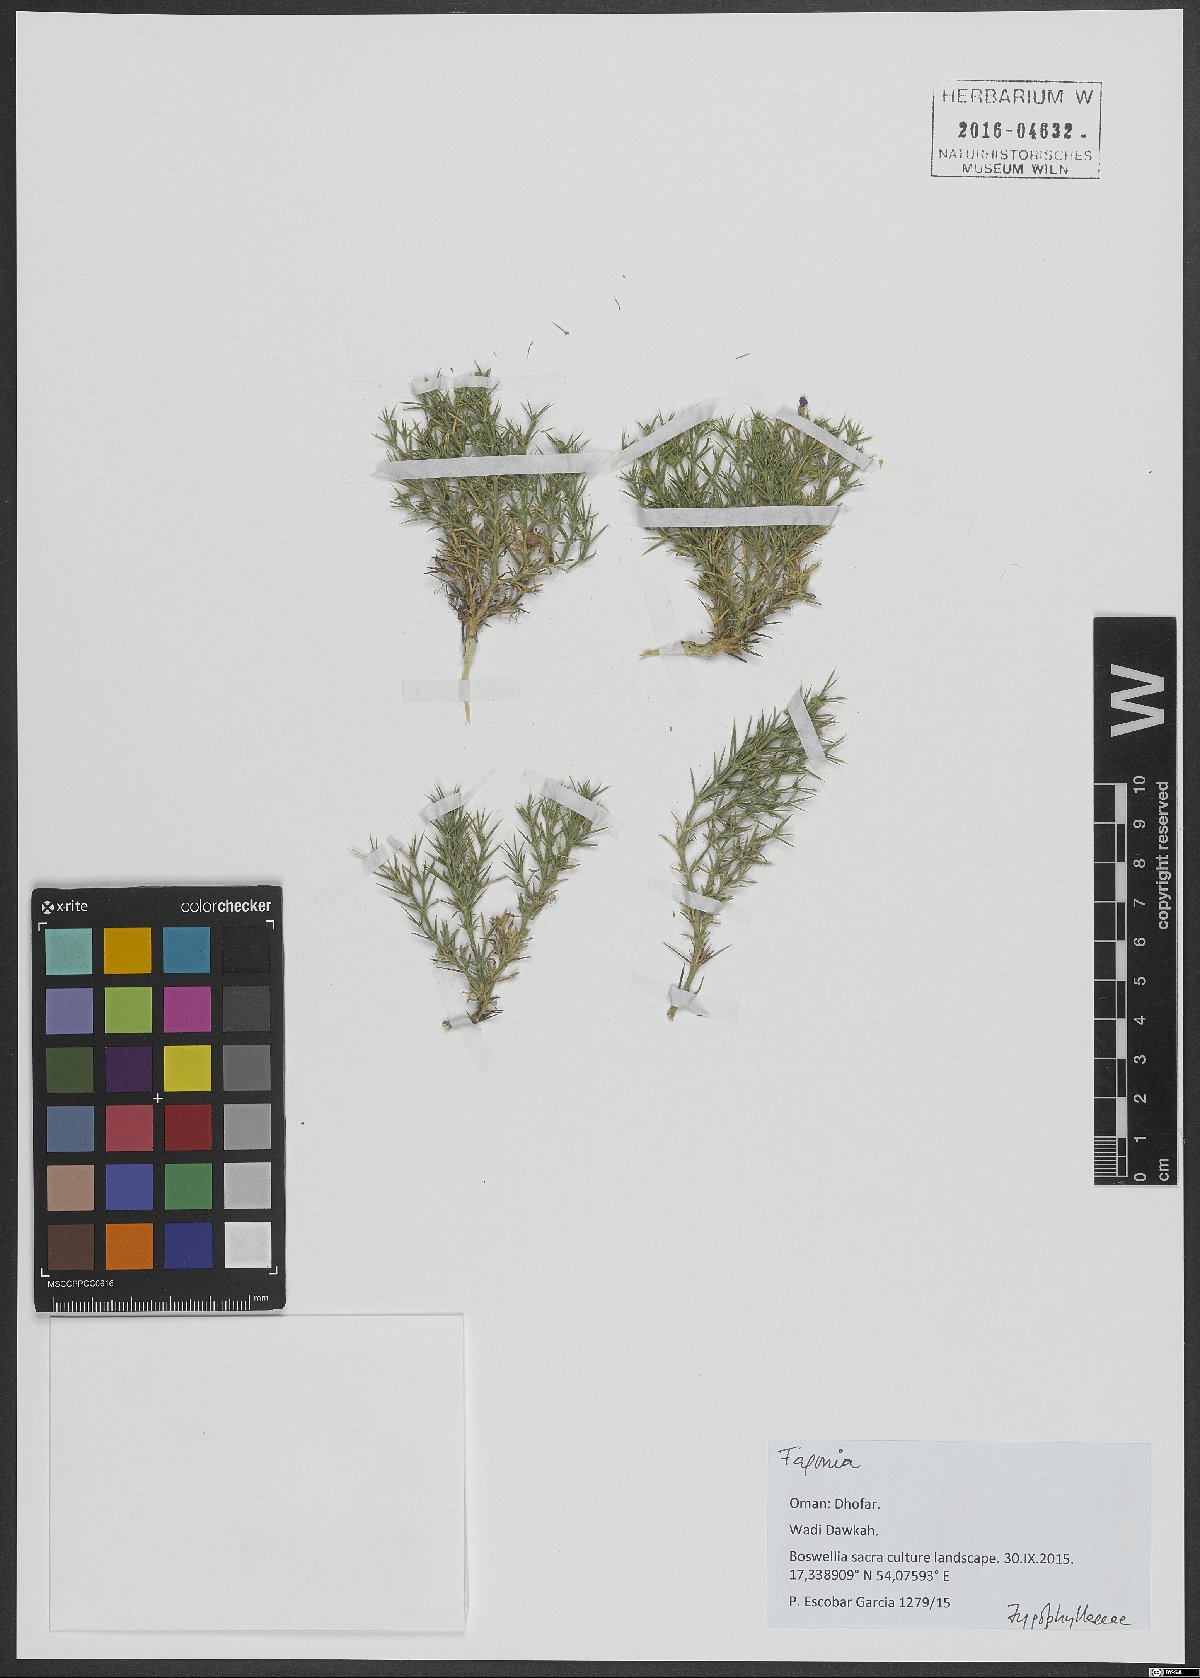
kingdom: Plantae
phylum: Tracheophyta
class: Magnoliopsida
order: Zygophyllales
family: Zygophyllaceae
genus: Fagonia
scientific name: Fagonia
